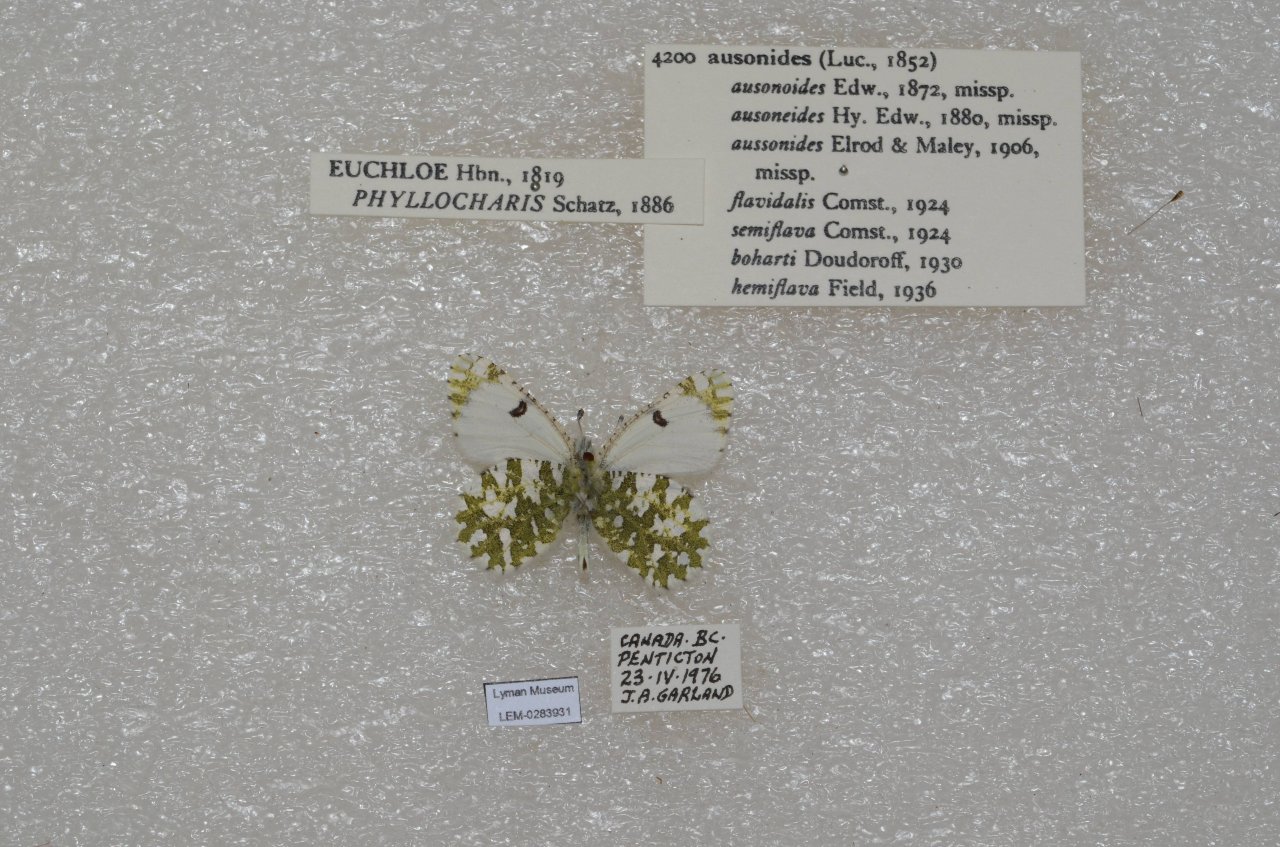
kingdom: Animalia
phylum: Arthropoda
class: Insecta
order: Lepidoptera
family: Pieridae
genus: Euchloe
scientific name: Euchloe ausonides
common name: Large Marble
